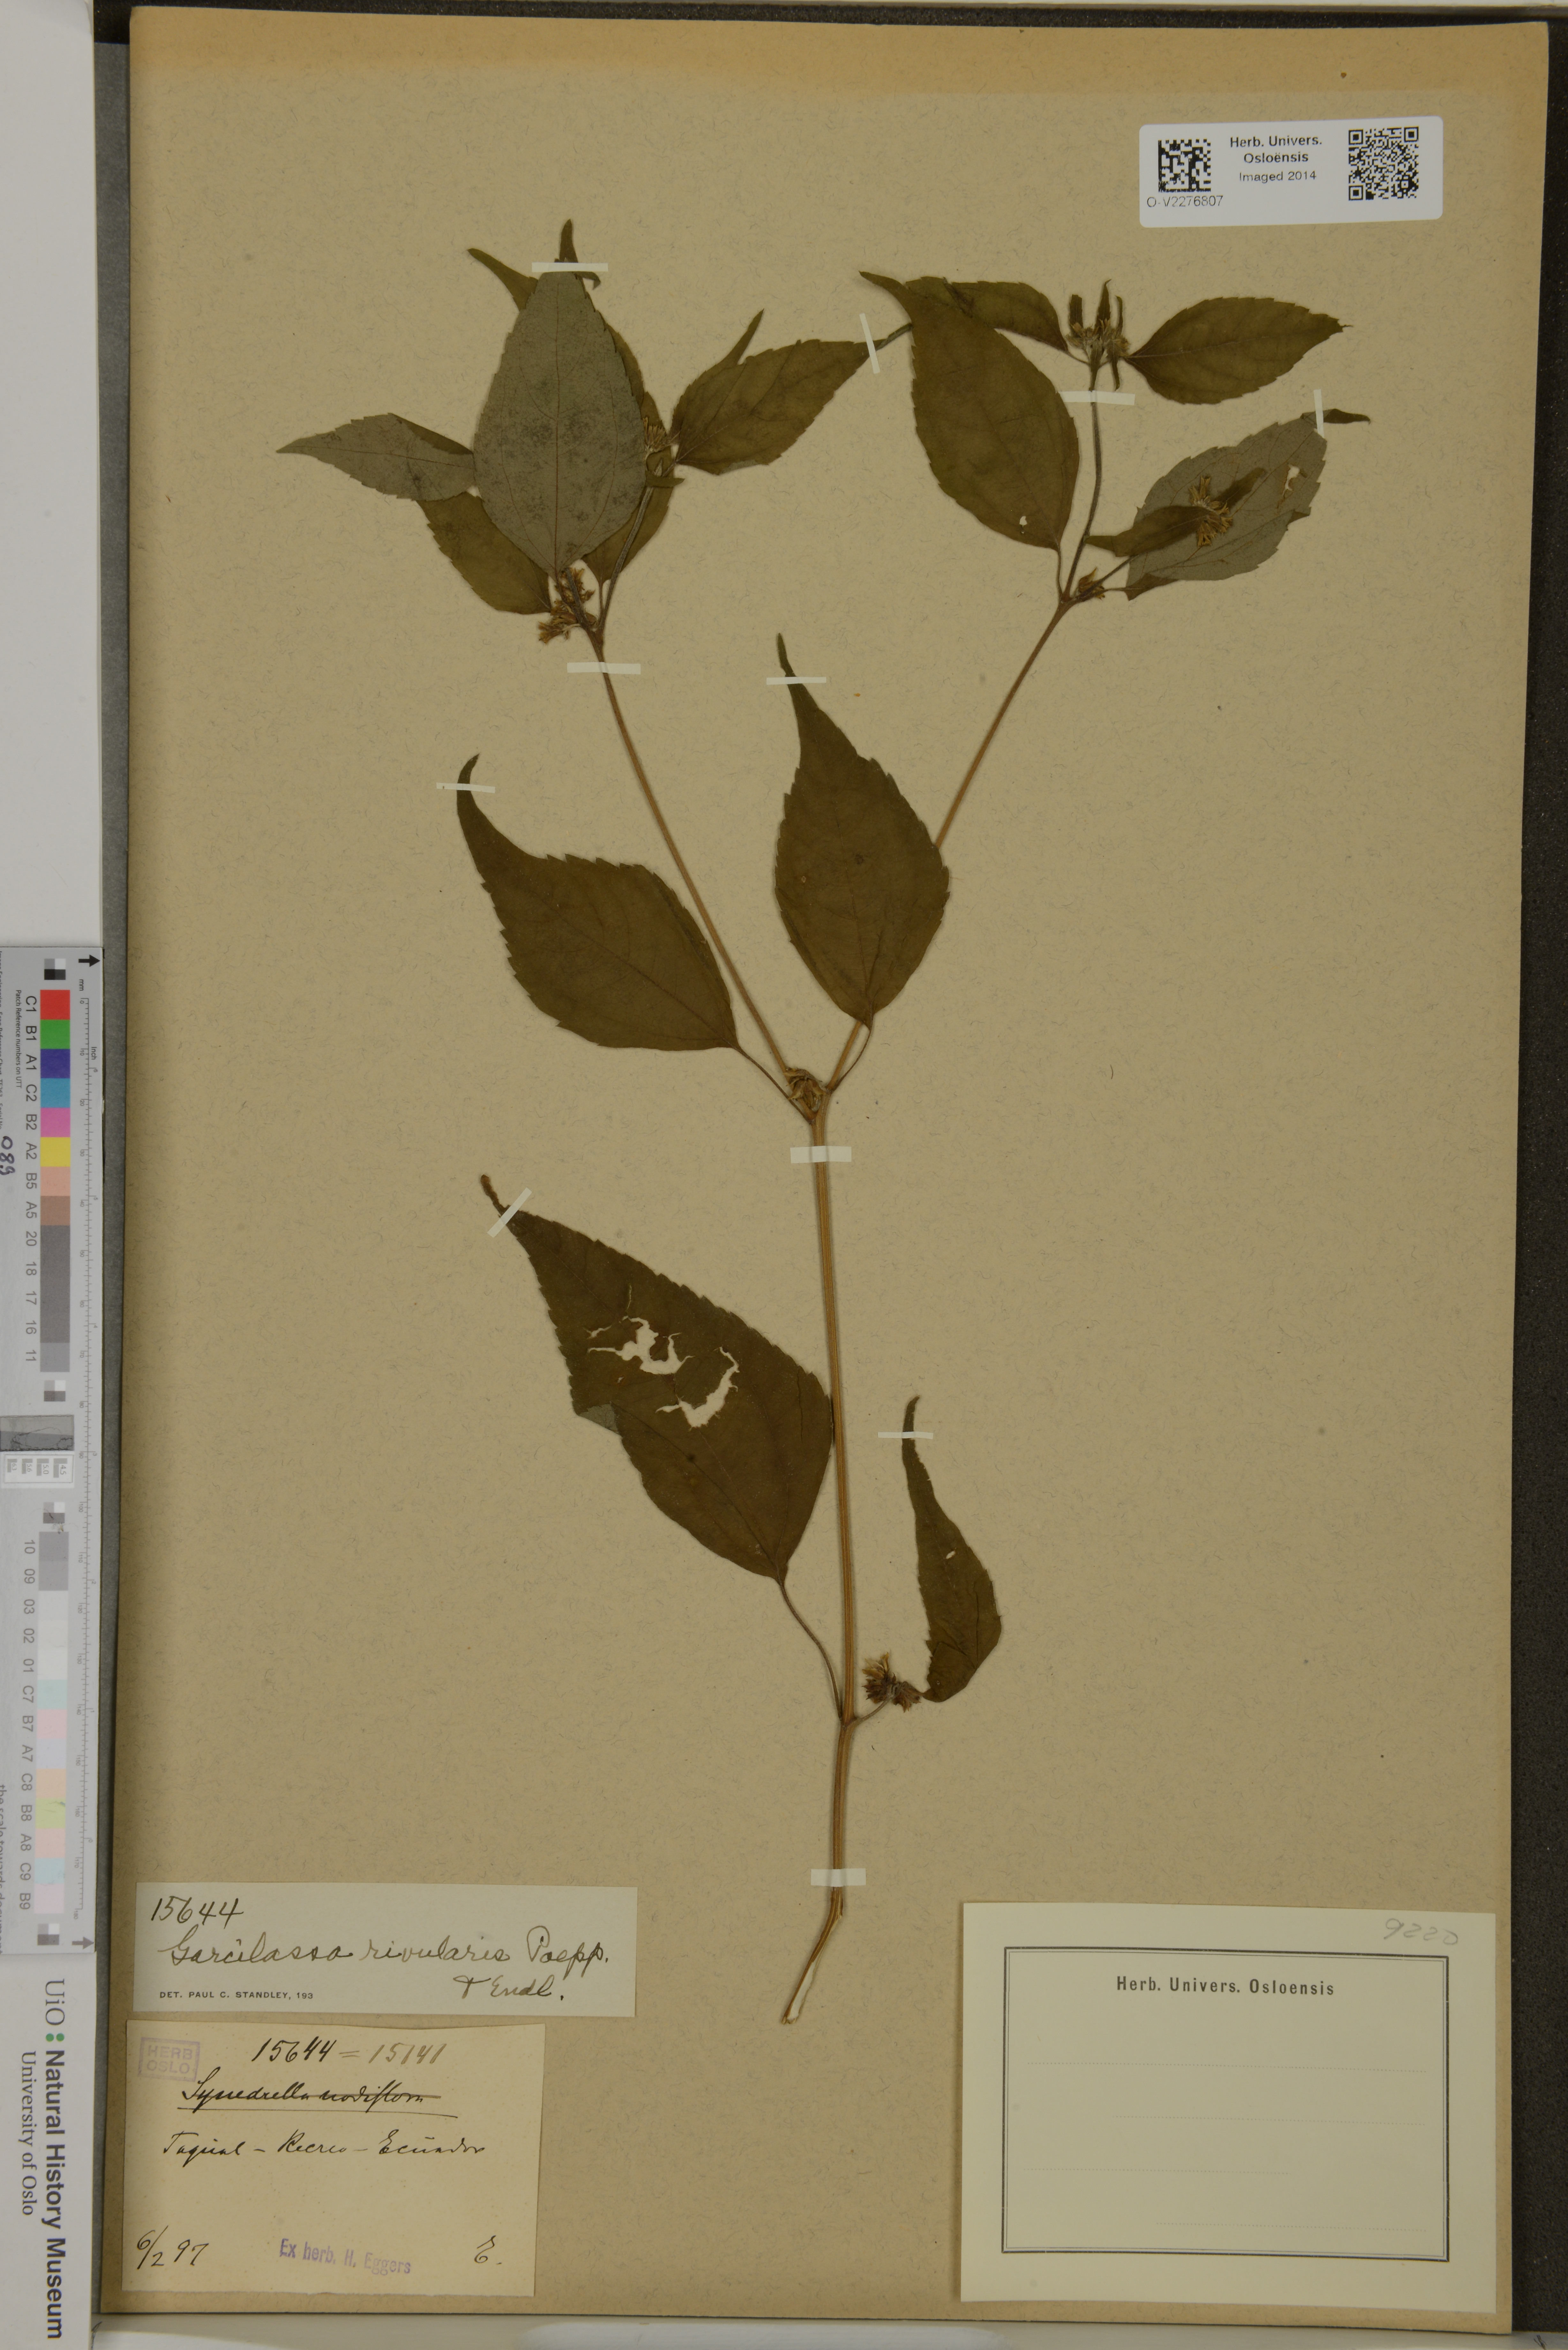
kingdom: Plantae
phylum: Tracheophyta
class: Magnoliopsida
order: Asterales
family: Asteraceae
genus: Hymenostephium
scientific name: Hymenostephium rivularis
